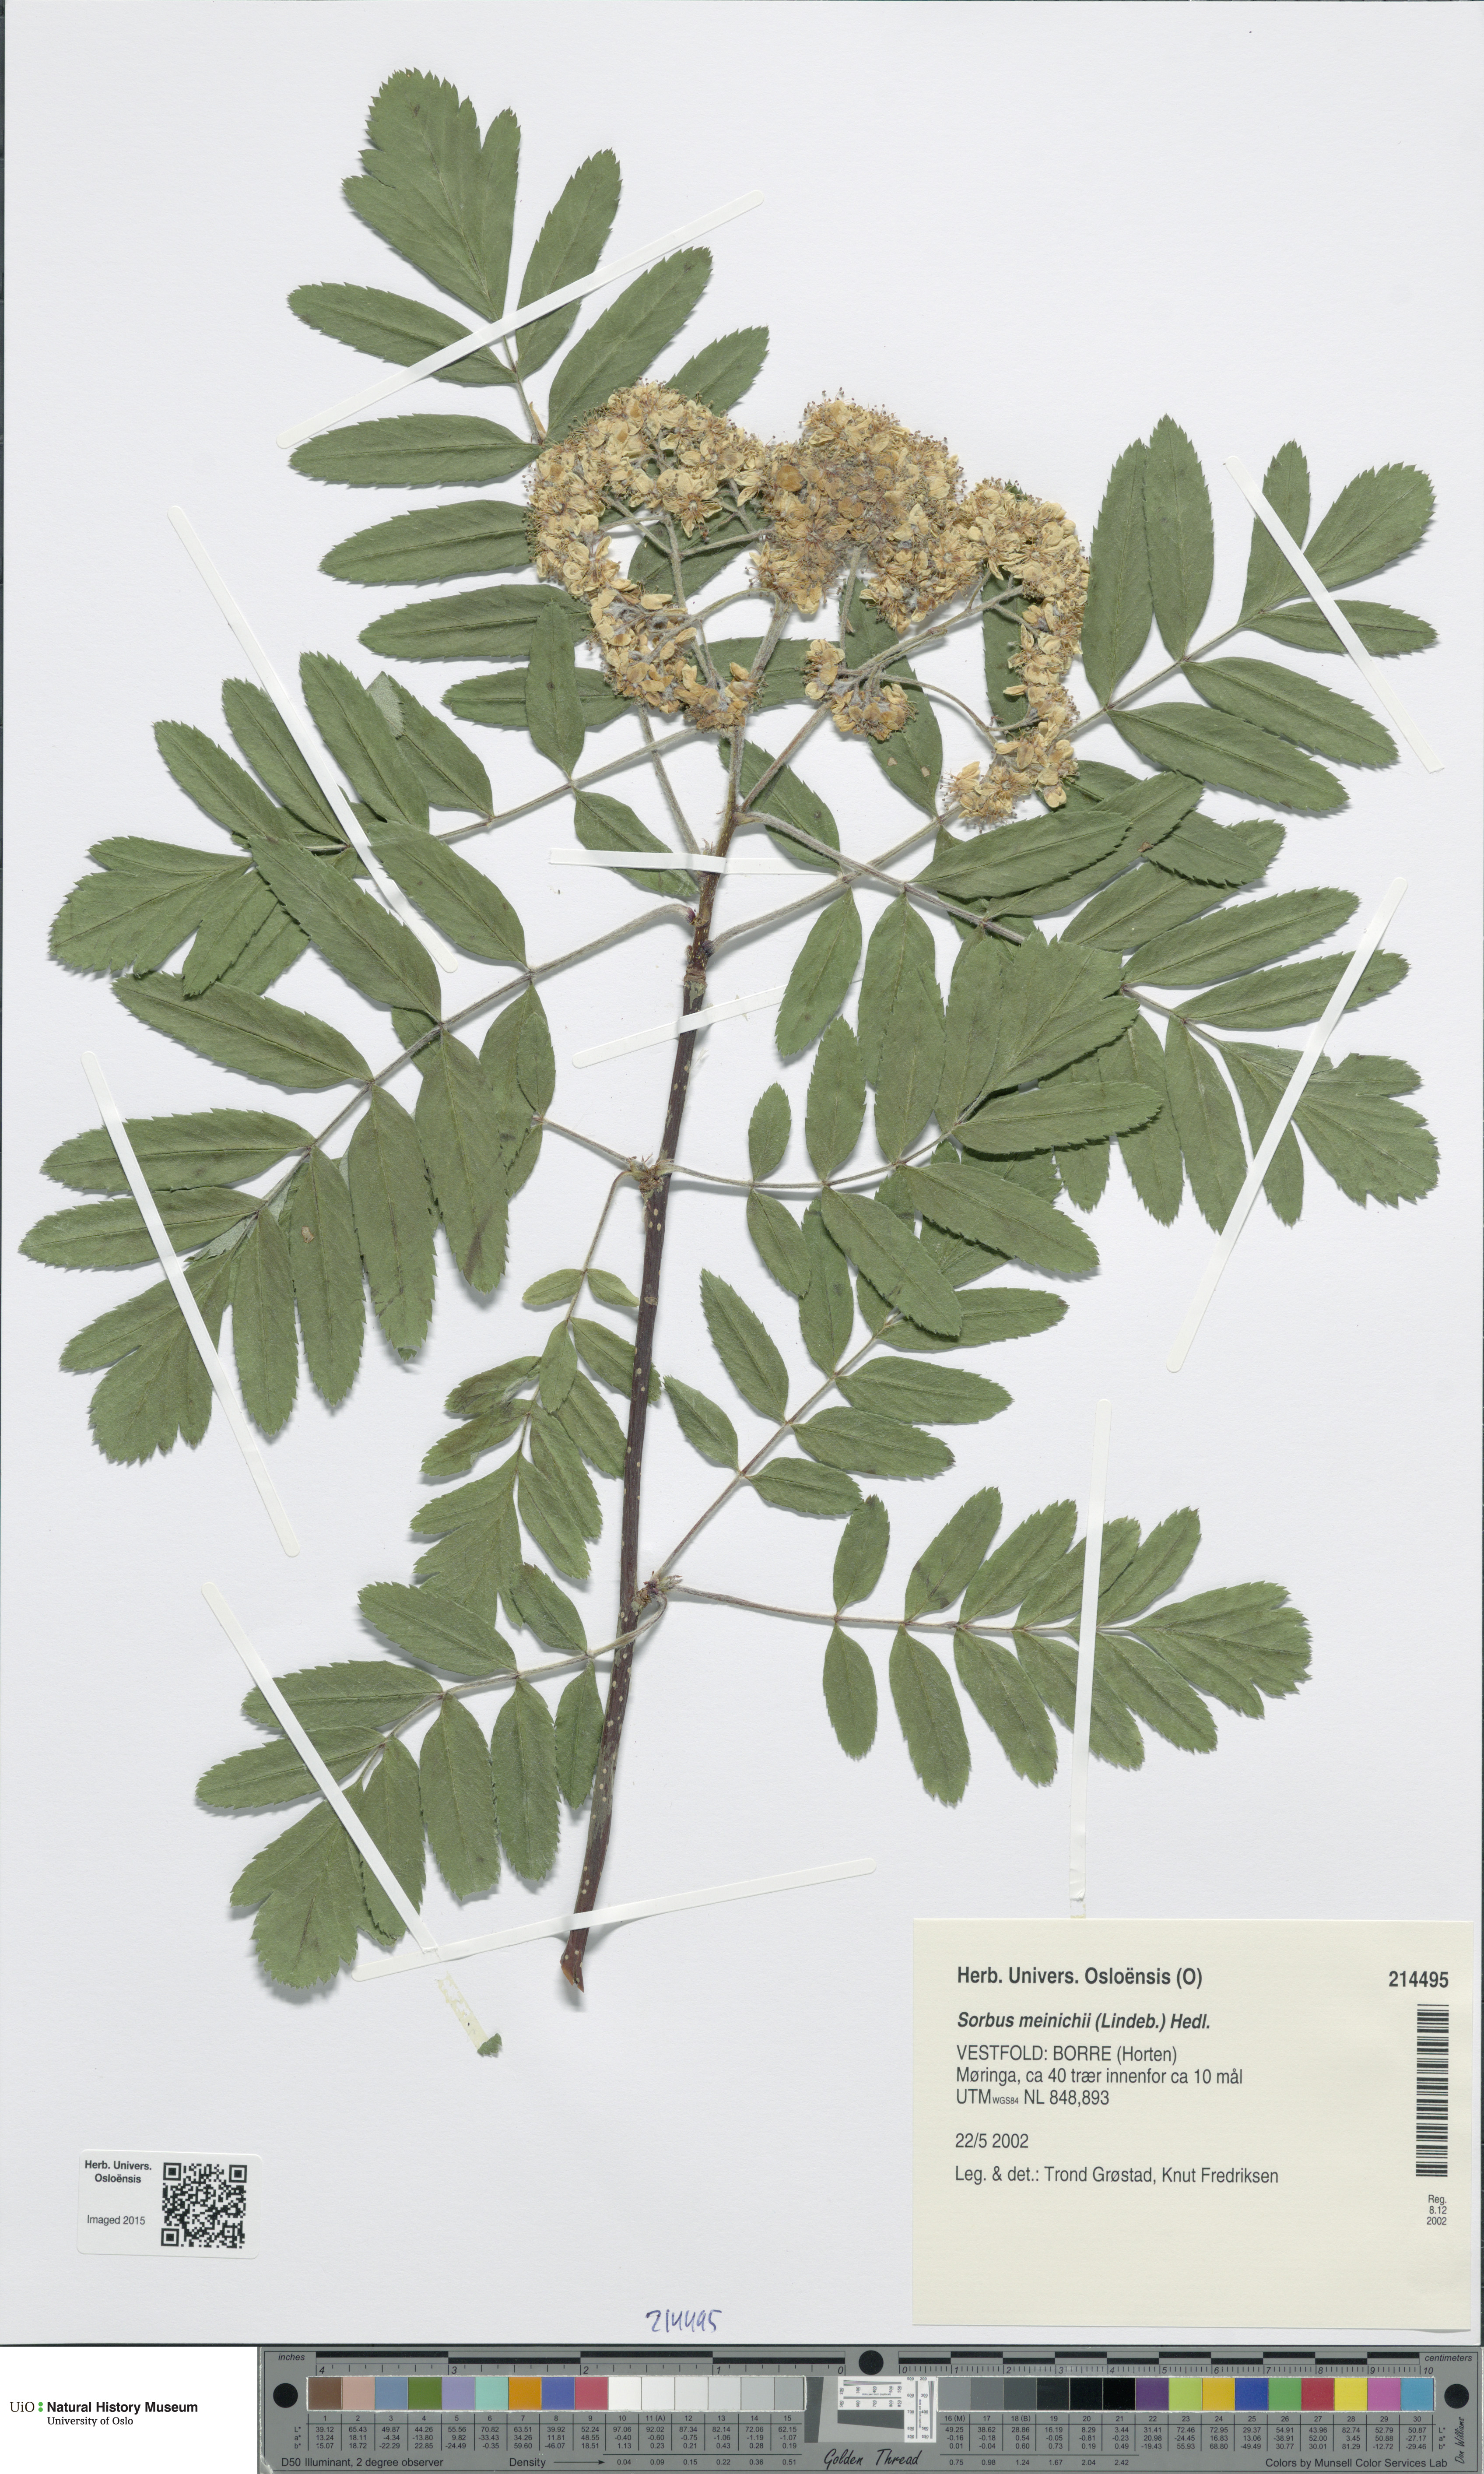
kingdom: Plantae
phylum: Tracheophyta
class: Magnoliopsida
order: Rosales
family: Rosaceae
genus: Hedlundia
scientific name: Hedlundia meinichii
